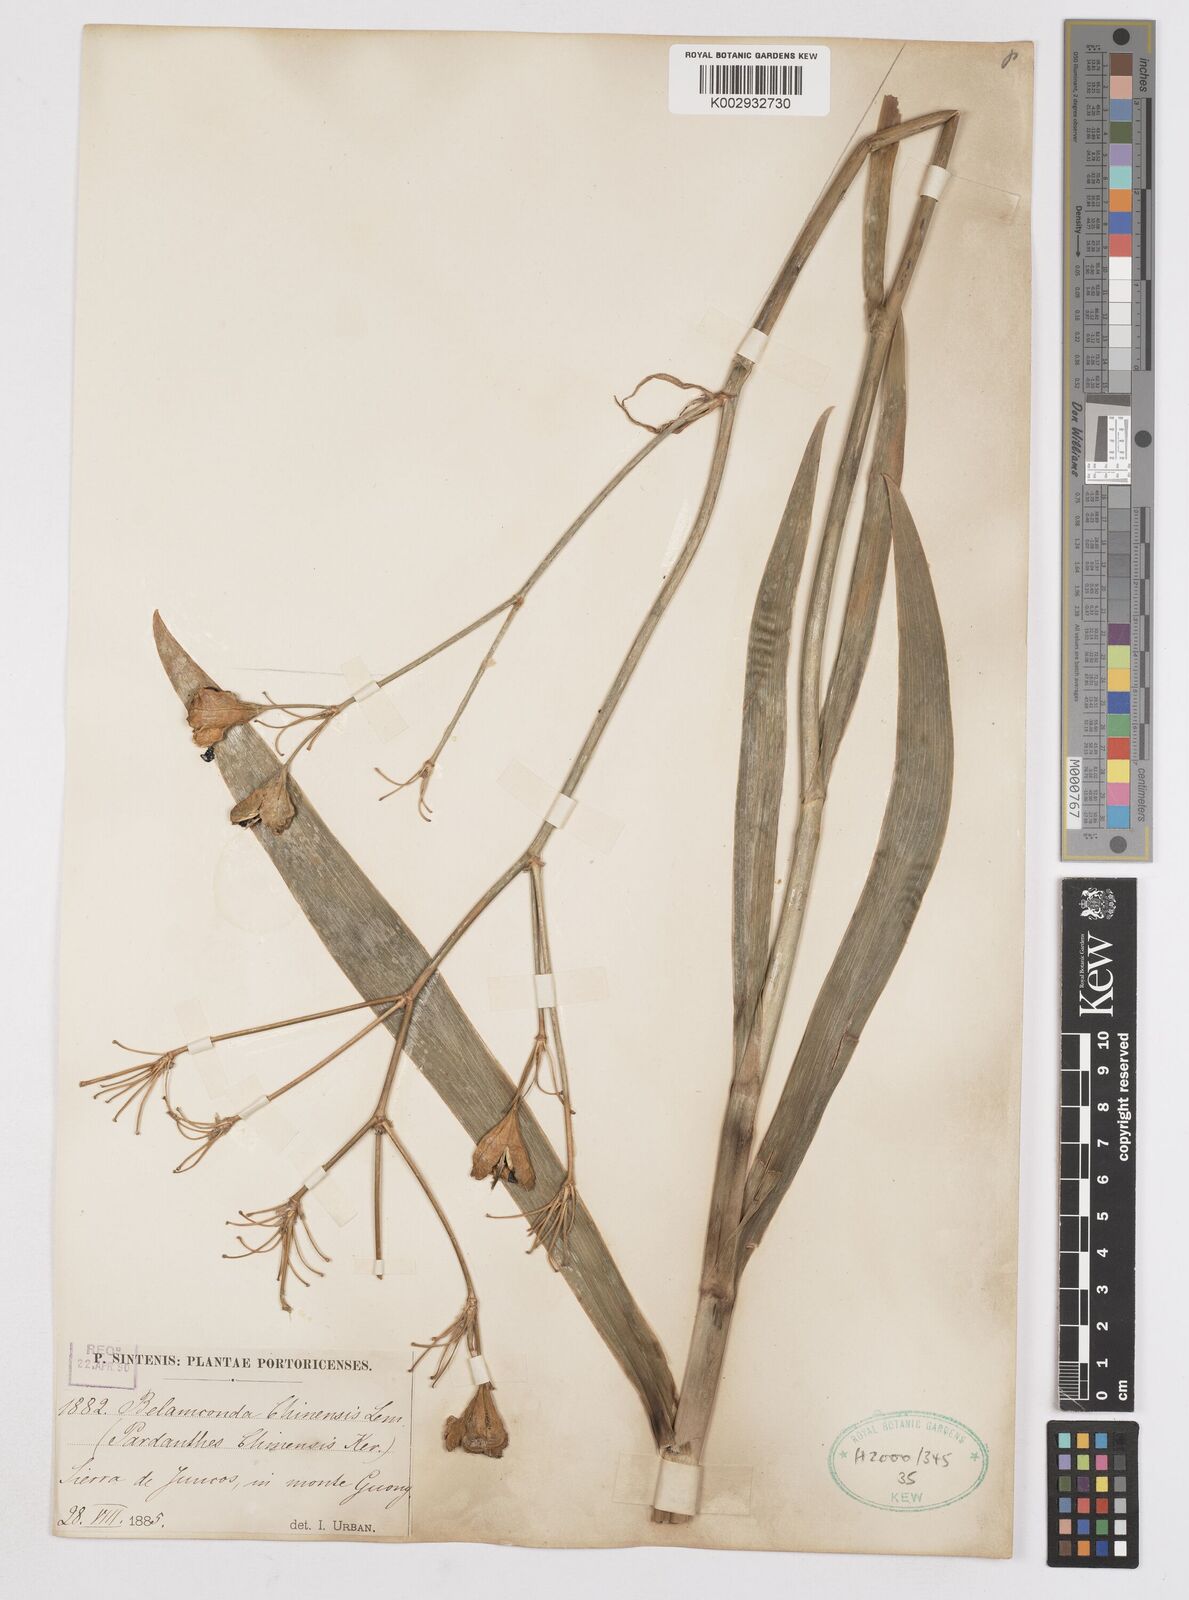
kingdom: Plantae
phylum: Tracheophyta
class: Liliopsida
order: Asparagales
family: Iridaceae
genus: Iris
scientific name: Iris susiana
